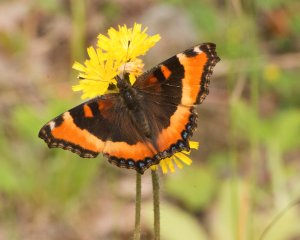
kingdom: Animalia
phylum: Arthropoda
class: Insecta
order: Lepidoptera
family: Nymphalidae
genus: Aglais
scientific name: Aglais milberti
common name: Milbert's Tortoiseshell
